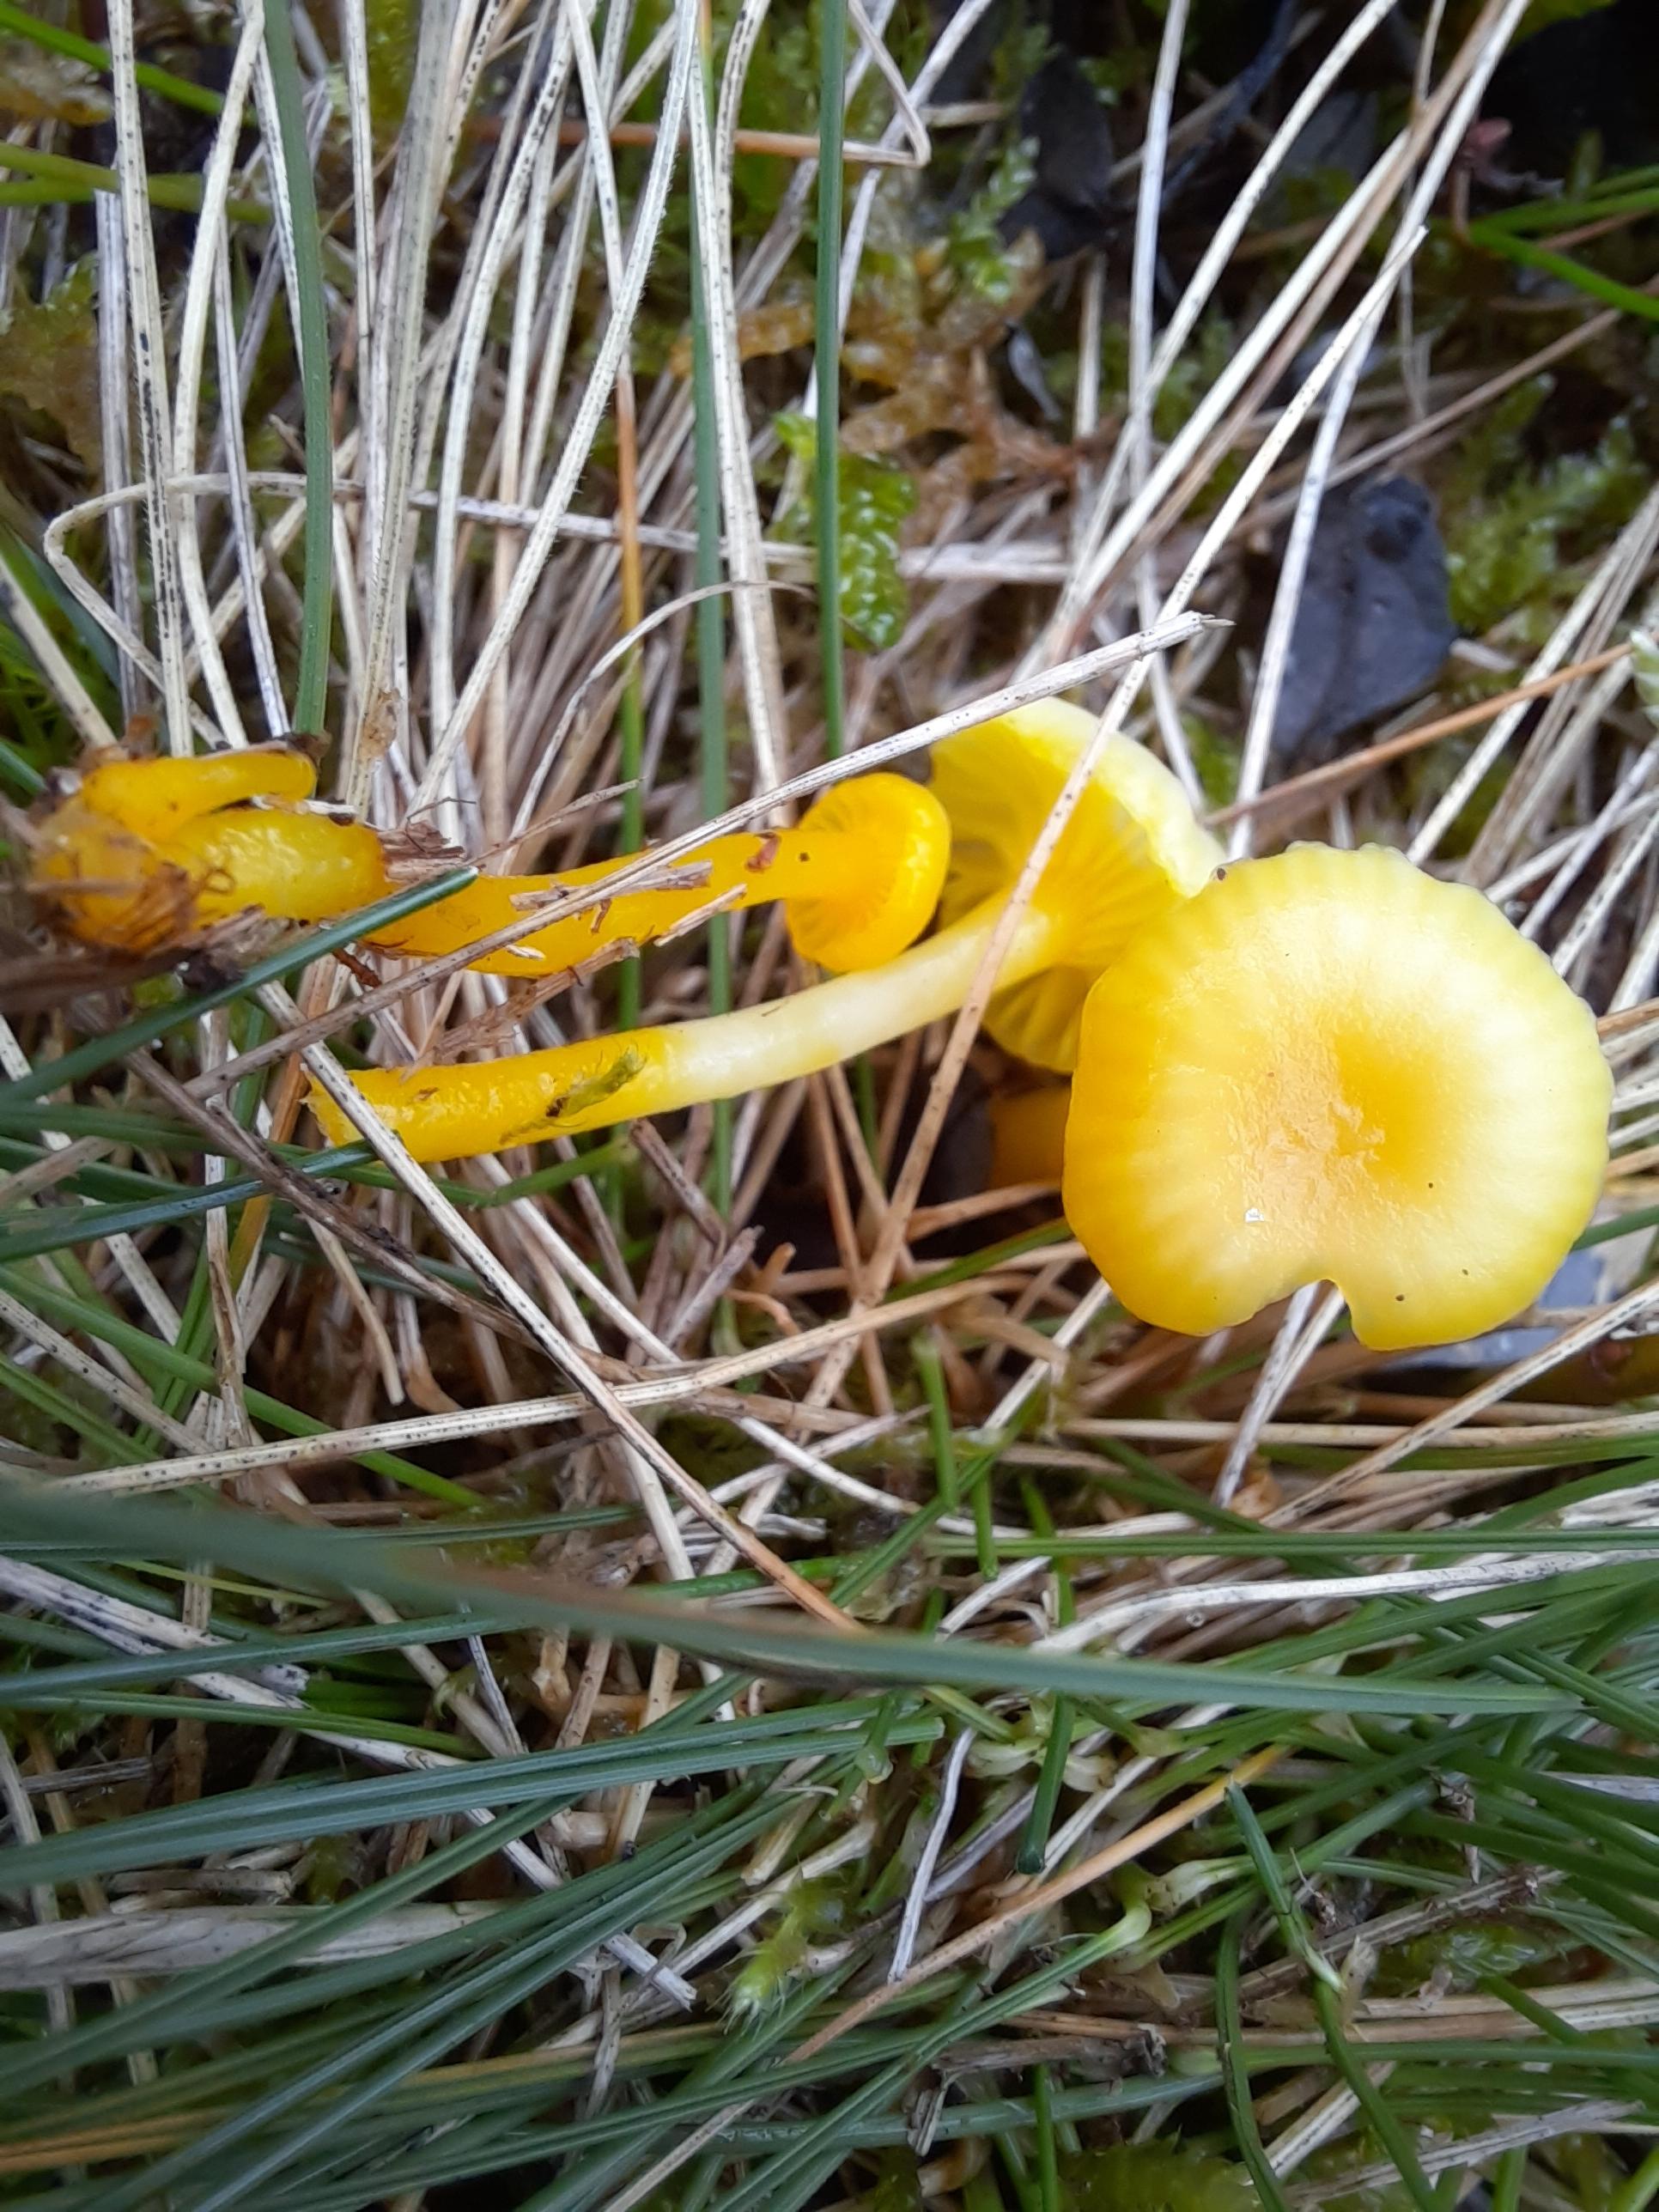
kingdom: Fungi
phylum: Basidiomycota
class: Agaricomycetes
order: Agaricales
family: Hygrophoraceae
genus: Gloioxanthomyces
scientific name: Gloioxanthomyces vitellinus
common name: kromgul vokshat
